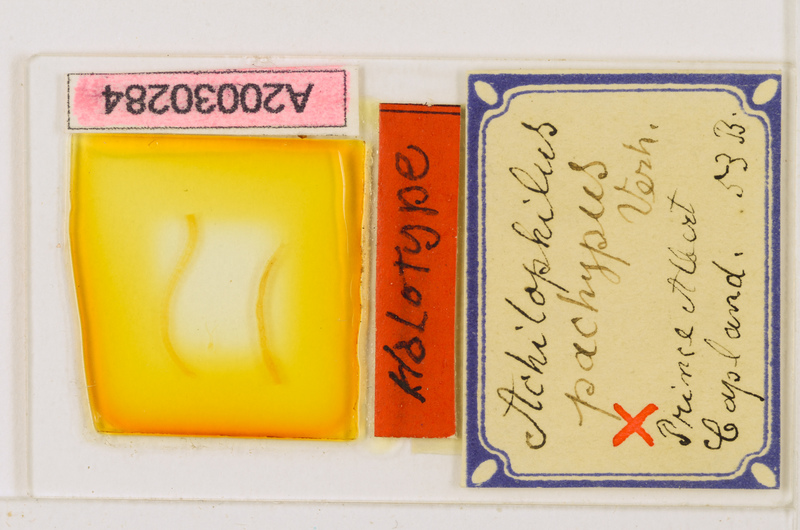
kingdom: Animalia
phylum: Arthropoda
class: Chilopoda
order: Geophilomorpha
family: Geophilidae
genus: Achilophilus
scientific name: Achilophilus monoporus
